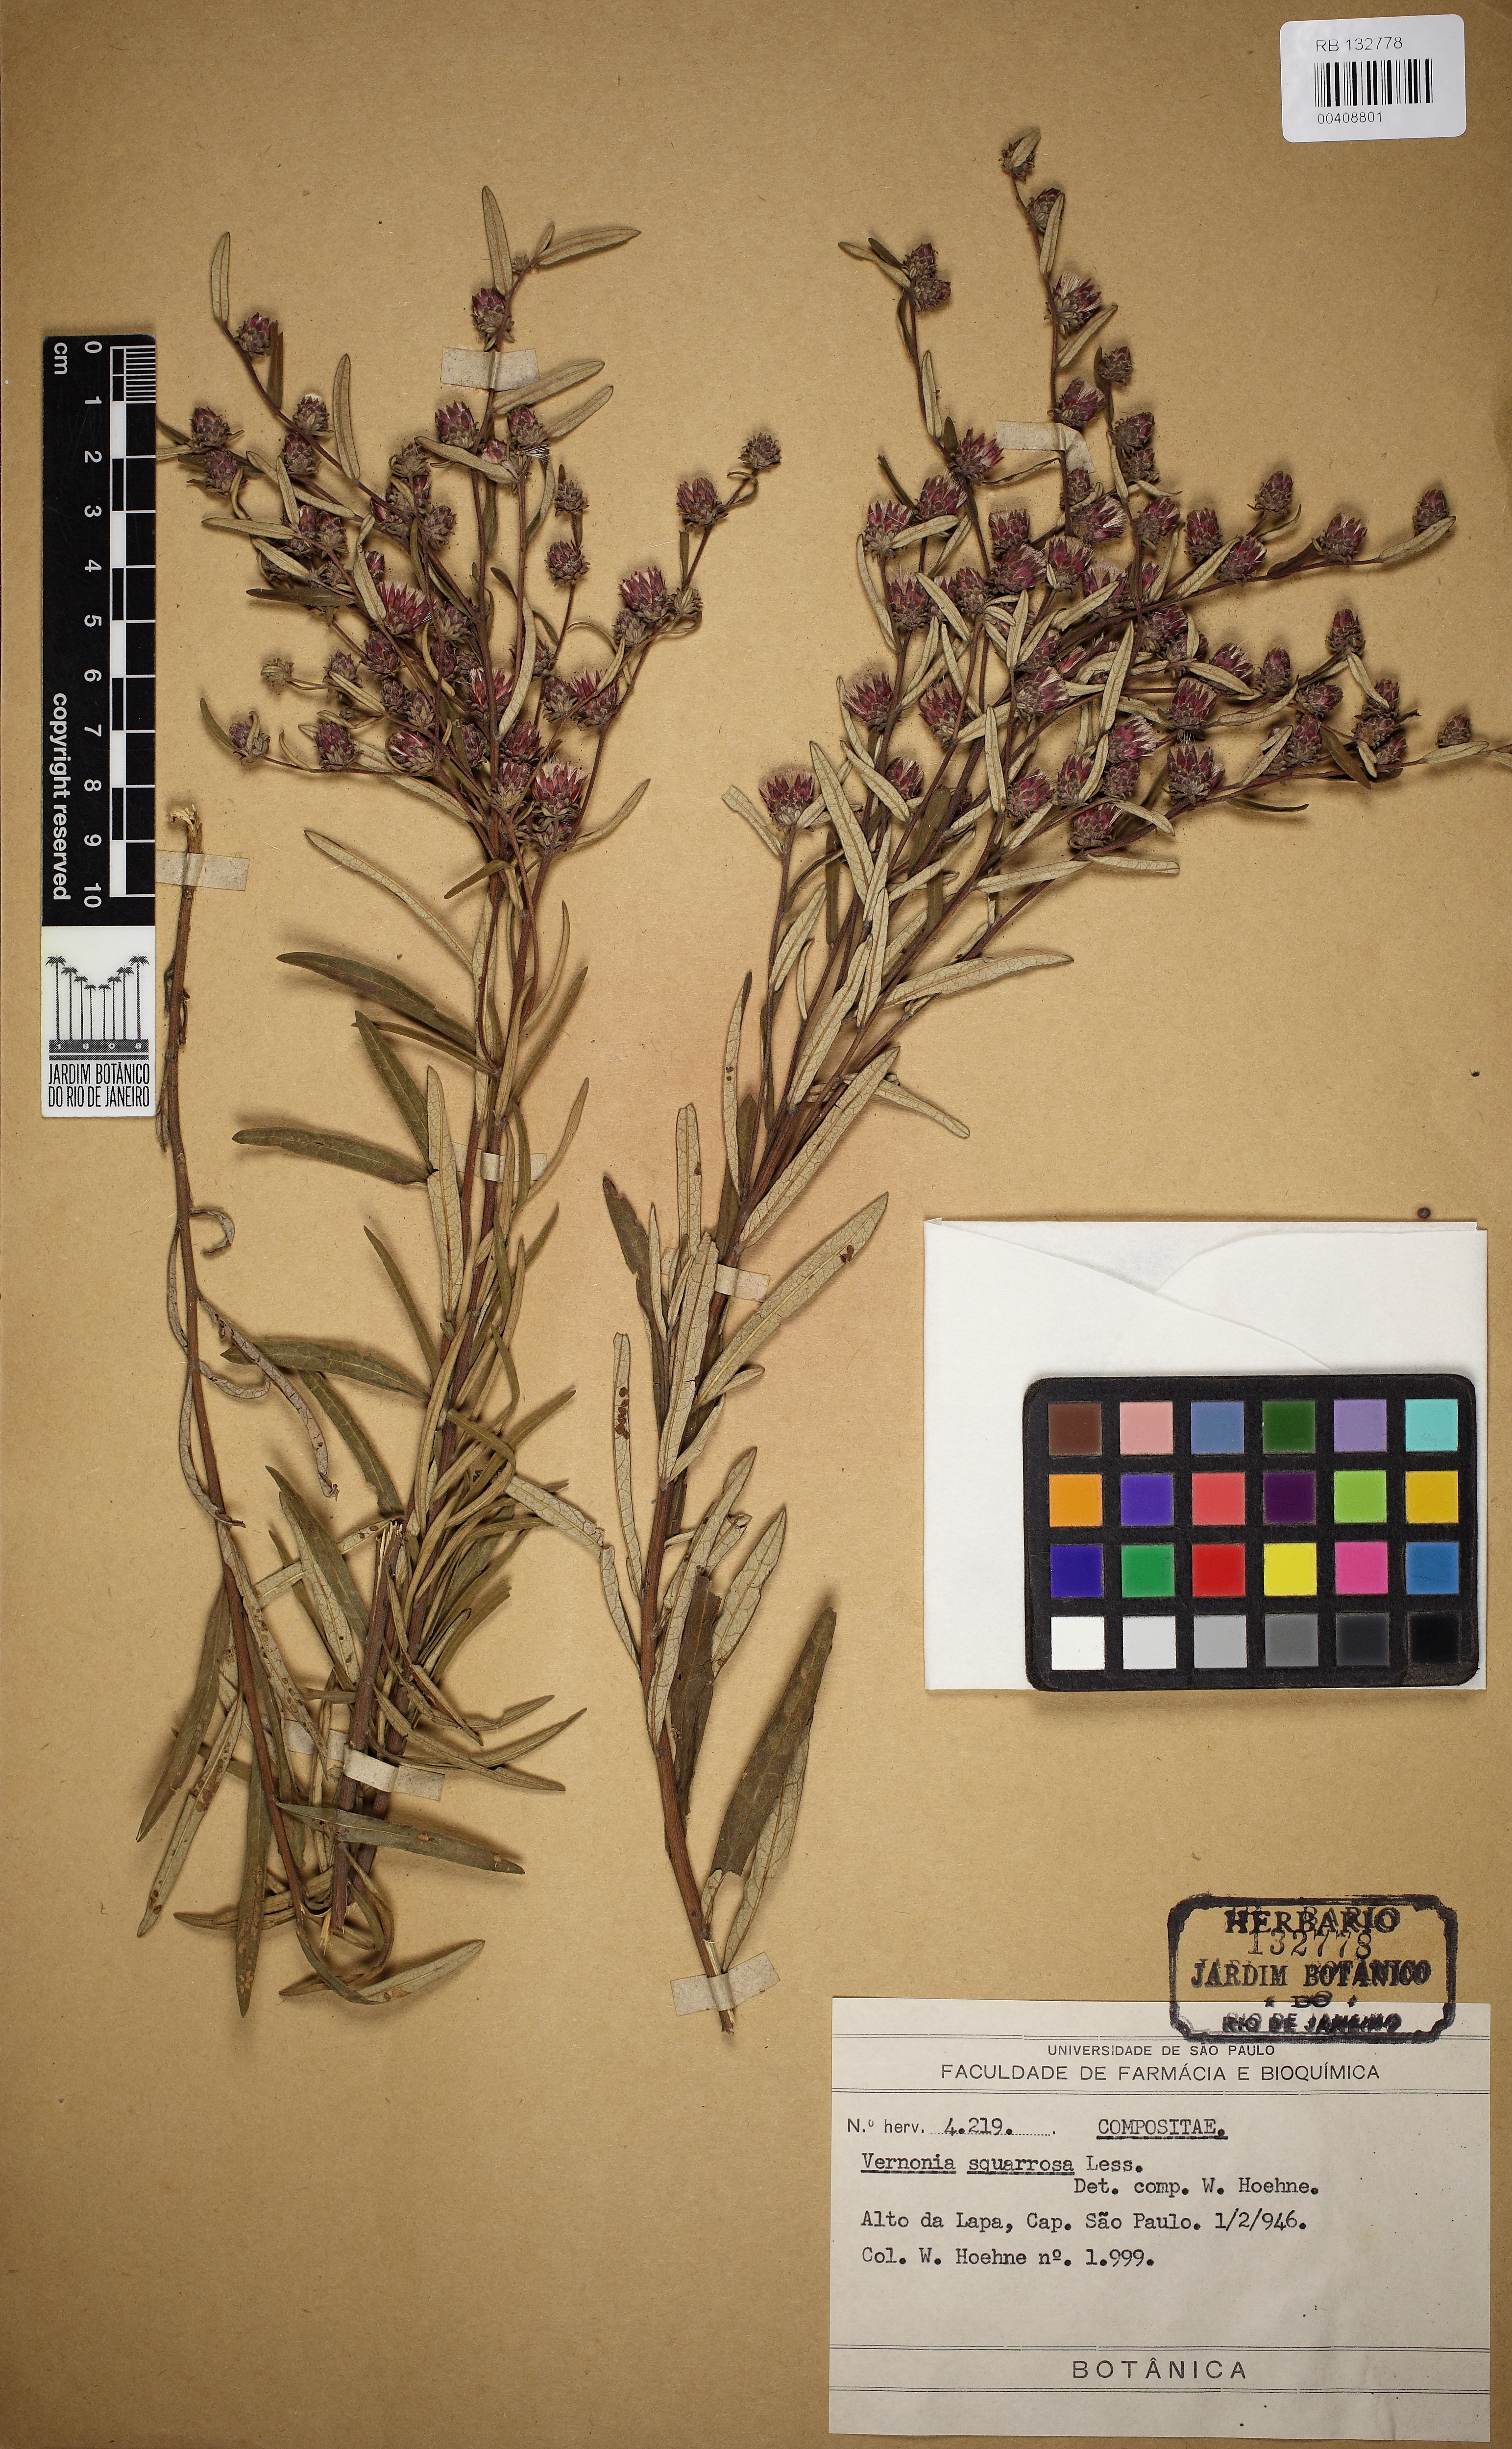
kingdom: Plantae
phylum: Tracheophyta
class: Magnoliopsida
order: Asterales
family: Asteraceae
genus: Lessingianthus
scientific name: Lessingianthus plantaginoides
